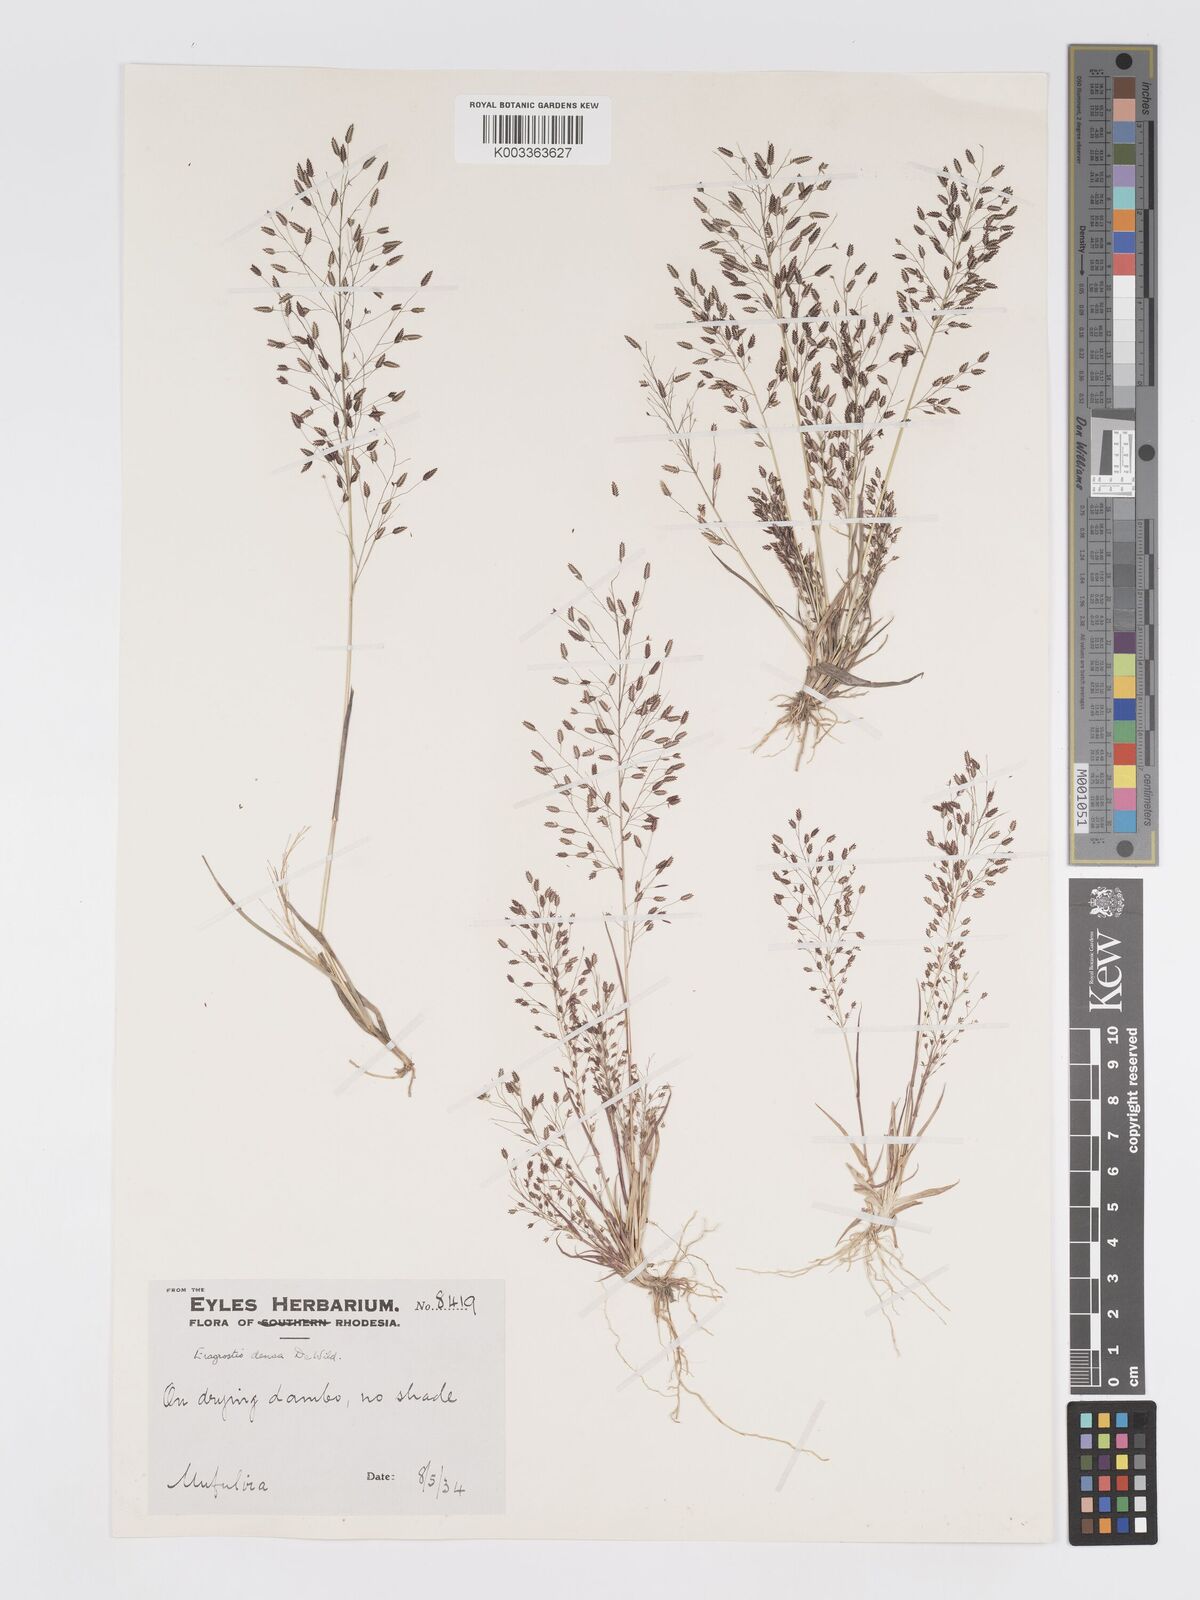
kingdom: Plantae
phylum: Tracheophyta
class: Liliopsida
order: Poales
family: Poaceae
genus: Eragrostis
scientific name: Eragrostis welwitschii
